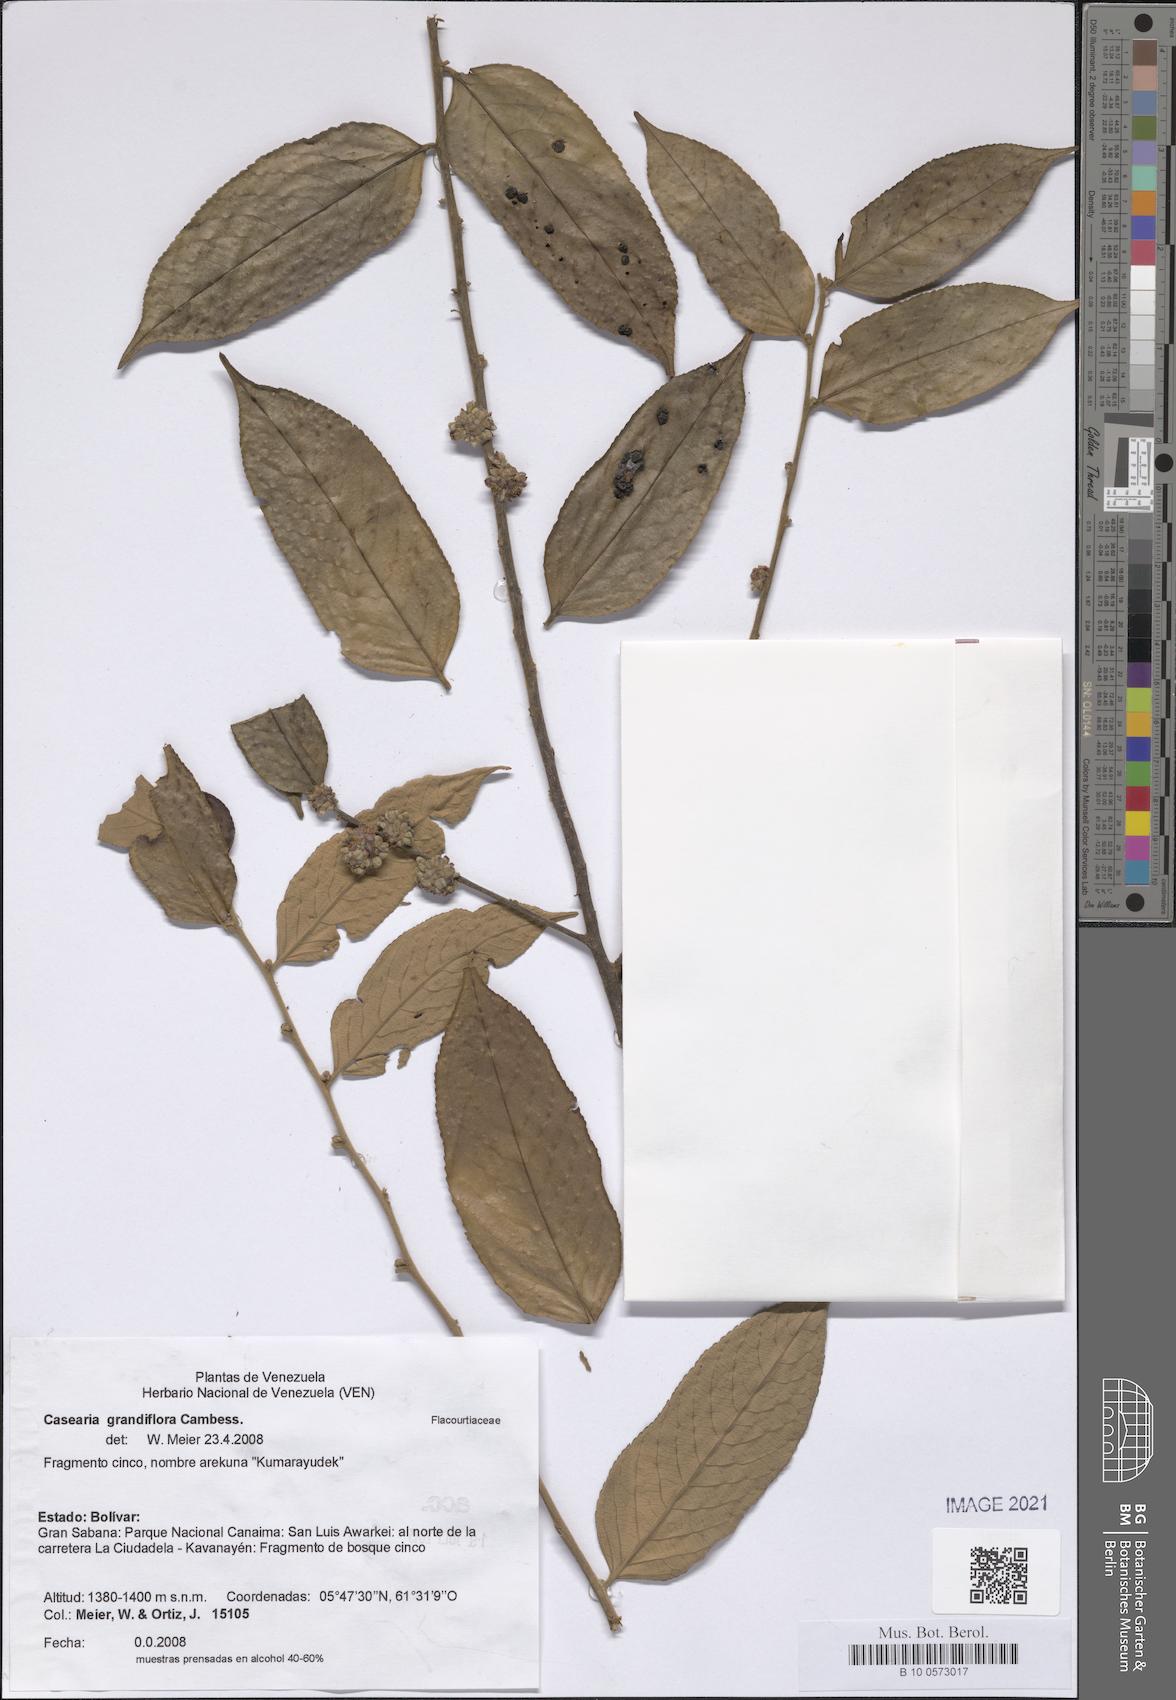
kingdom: Plantae
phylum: Tracheophyta
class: Magnoliopsida
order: Malpighiales
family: Salicaceae
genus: Casearia
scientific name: Casearia grandiflora
